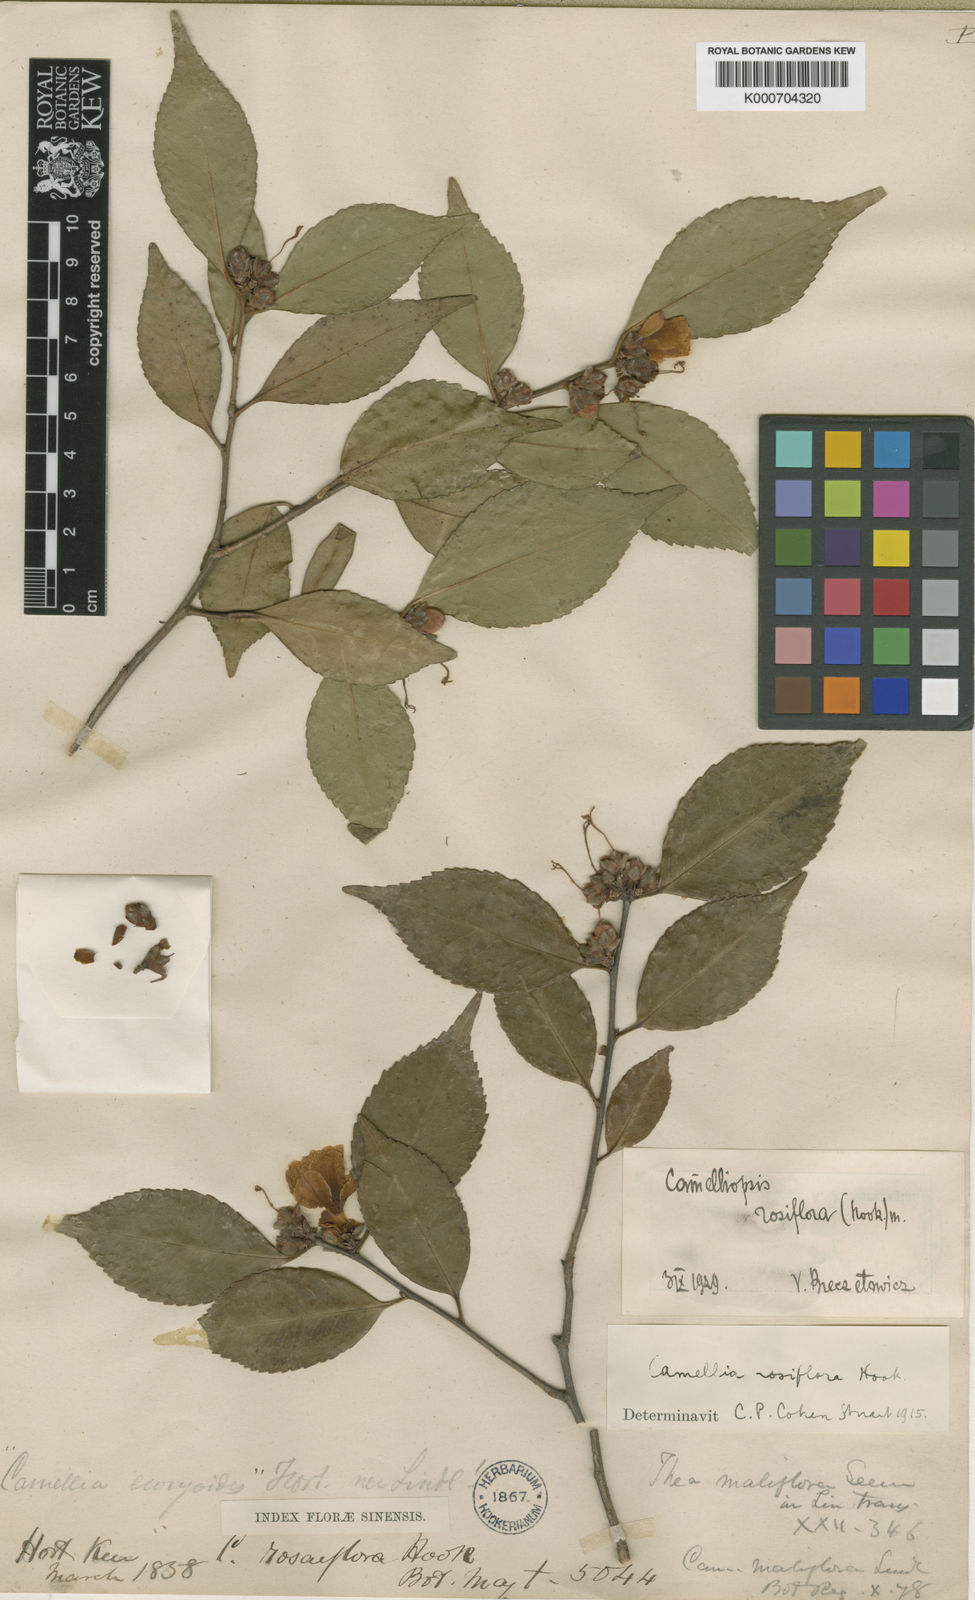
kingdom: Plantae
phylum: Tracheophyta
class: Magnoliopsida
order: Ericales
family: Theaceae
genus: Camellia
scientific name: Camellia rosiflora
